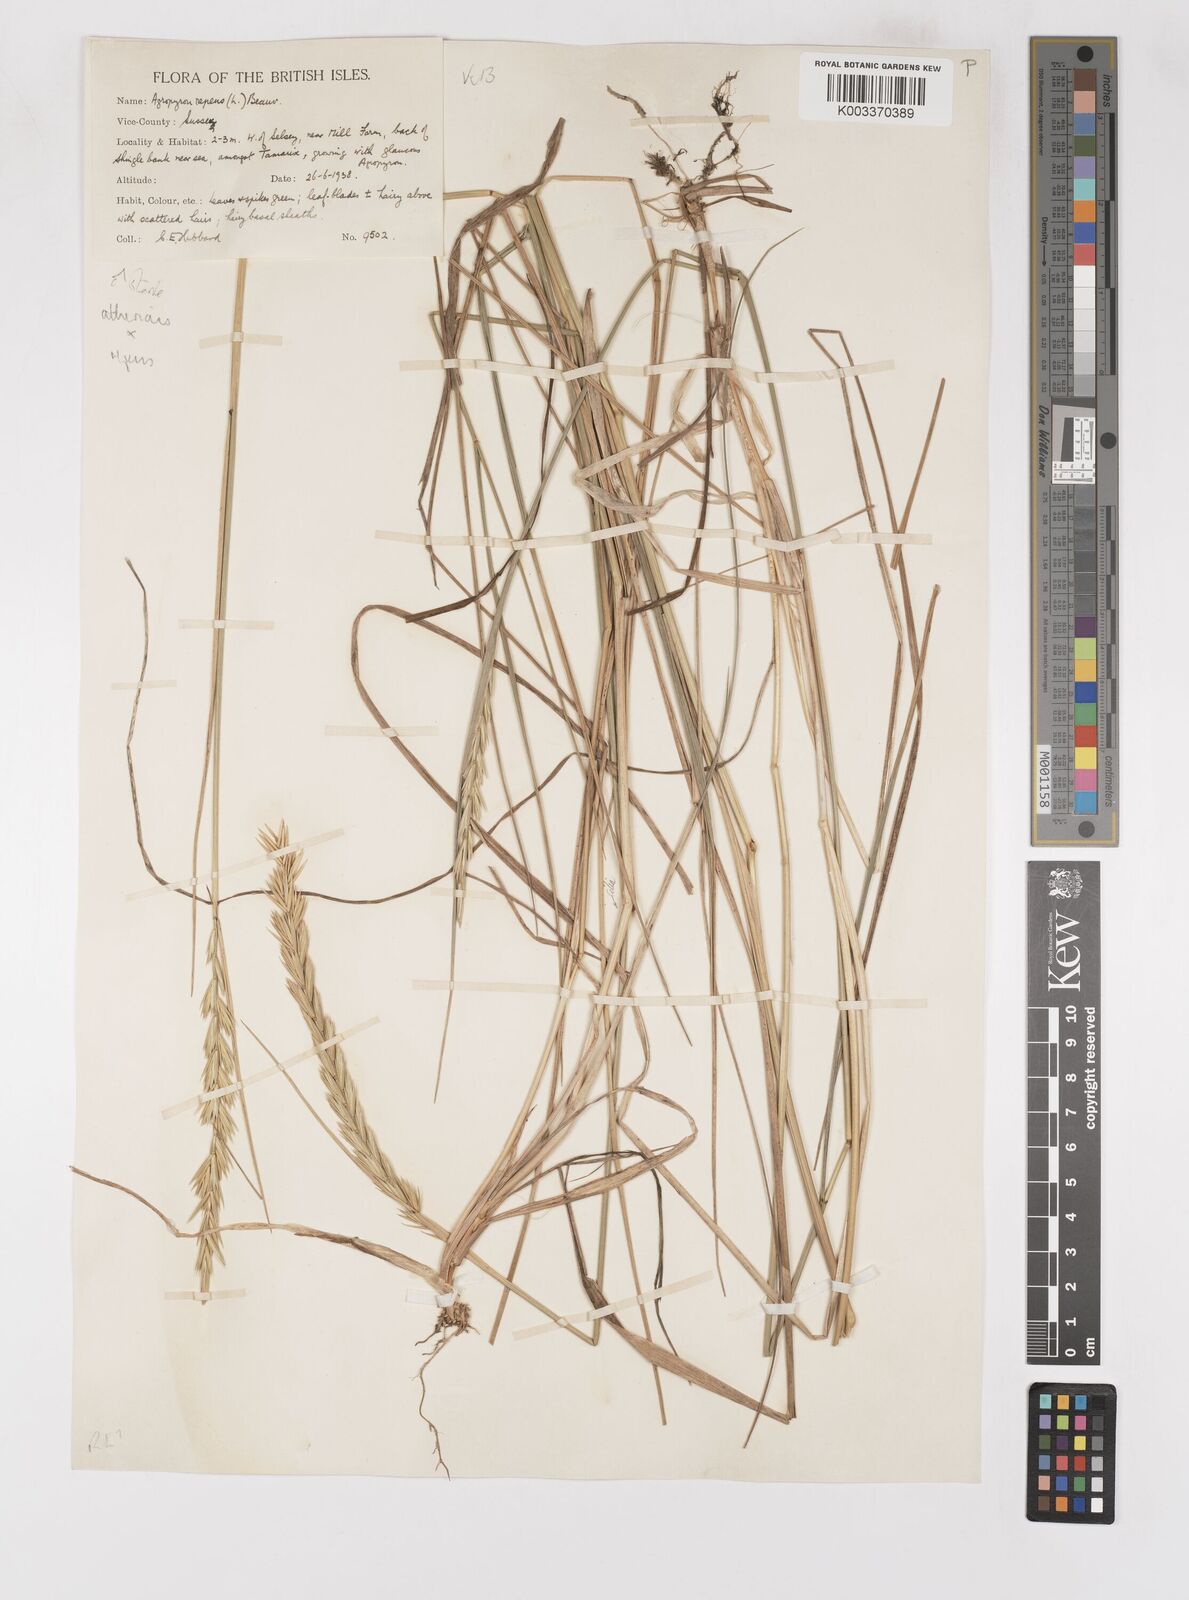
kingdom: Plantae
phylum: Tracheophyta
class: Liliopsida
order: Poales
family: Poaceae
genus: Elymus
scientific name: Elymus oliveri
